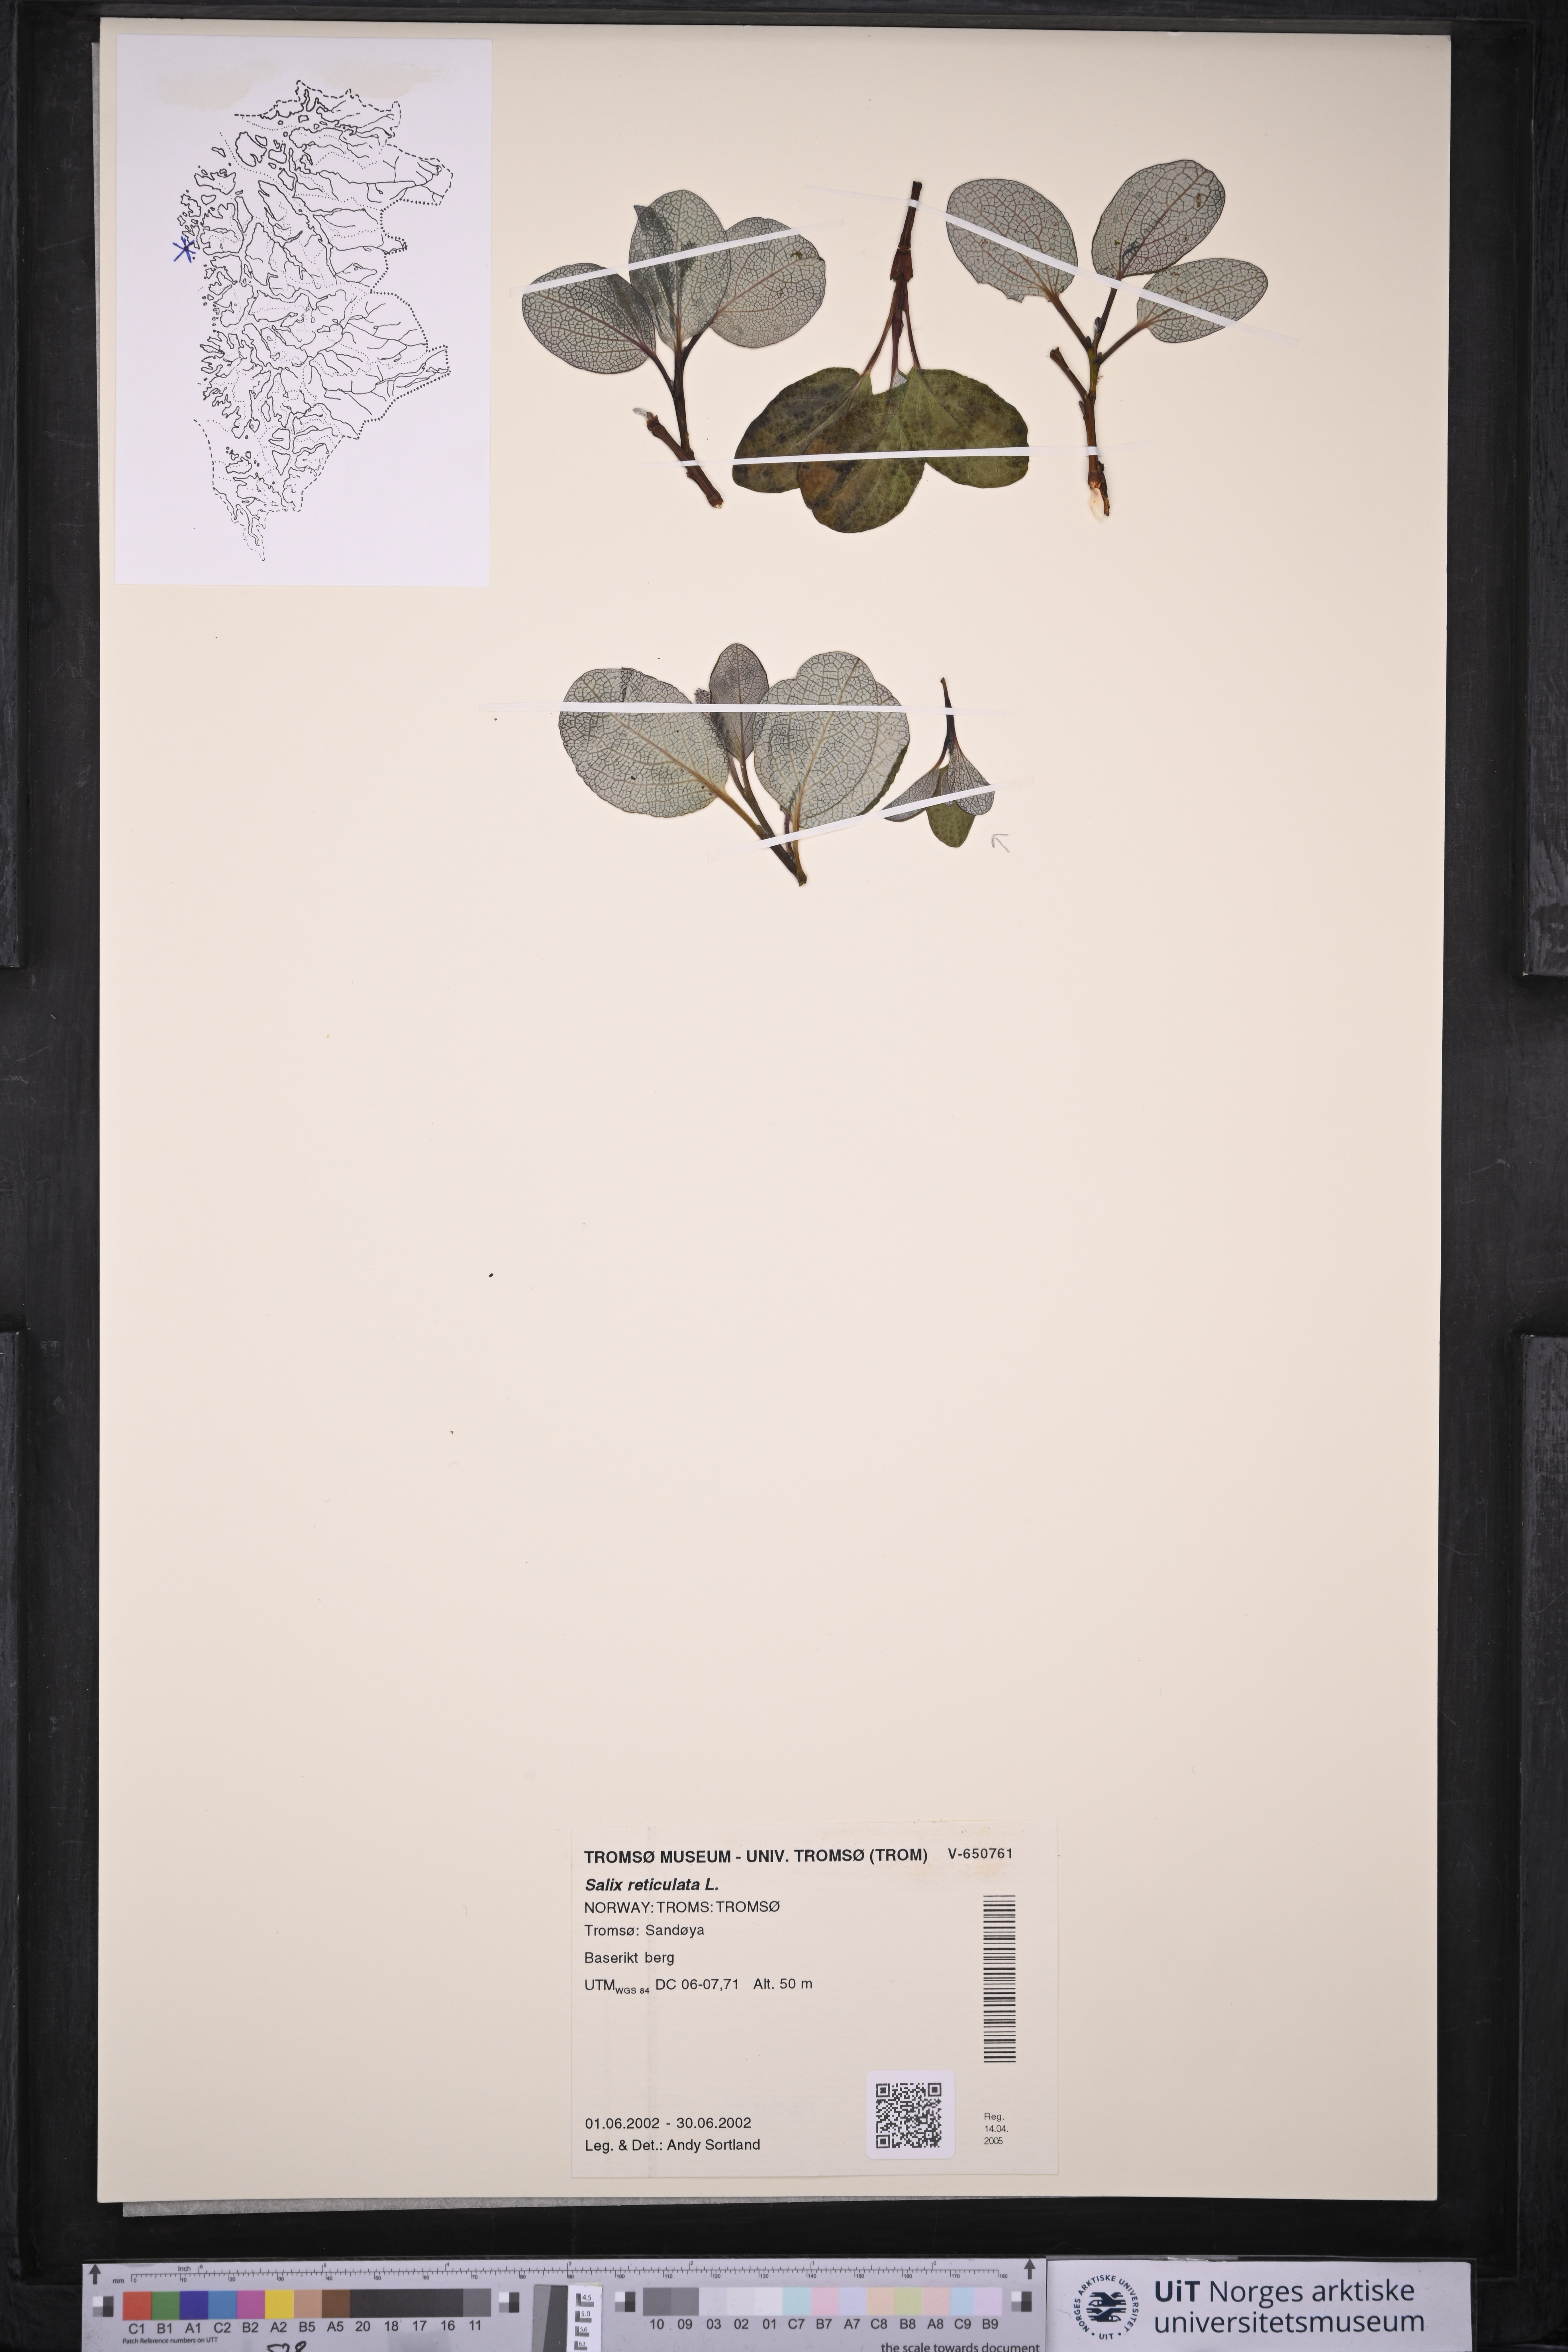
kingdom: Plantae
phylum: Tracheophyta
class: Magnoliopsida
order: Malpighiales
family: Salicaceae
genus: Salix
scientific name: Salix reticulata
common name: Net-leaved willow
